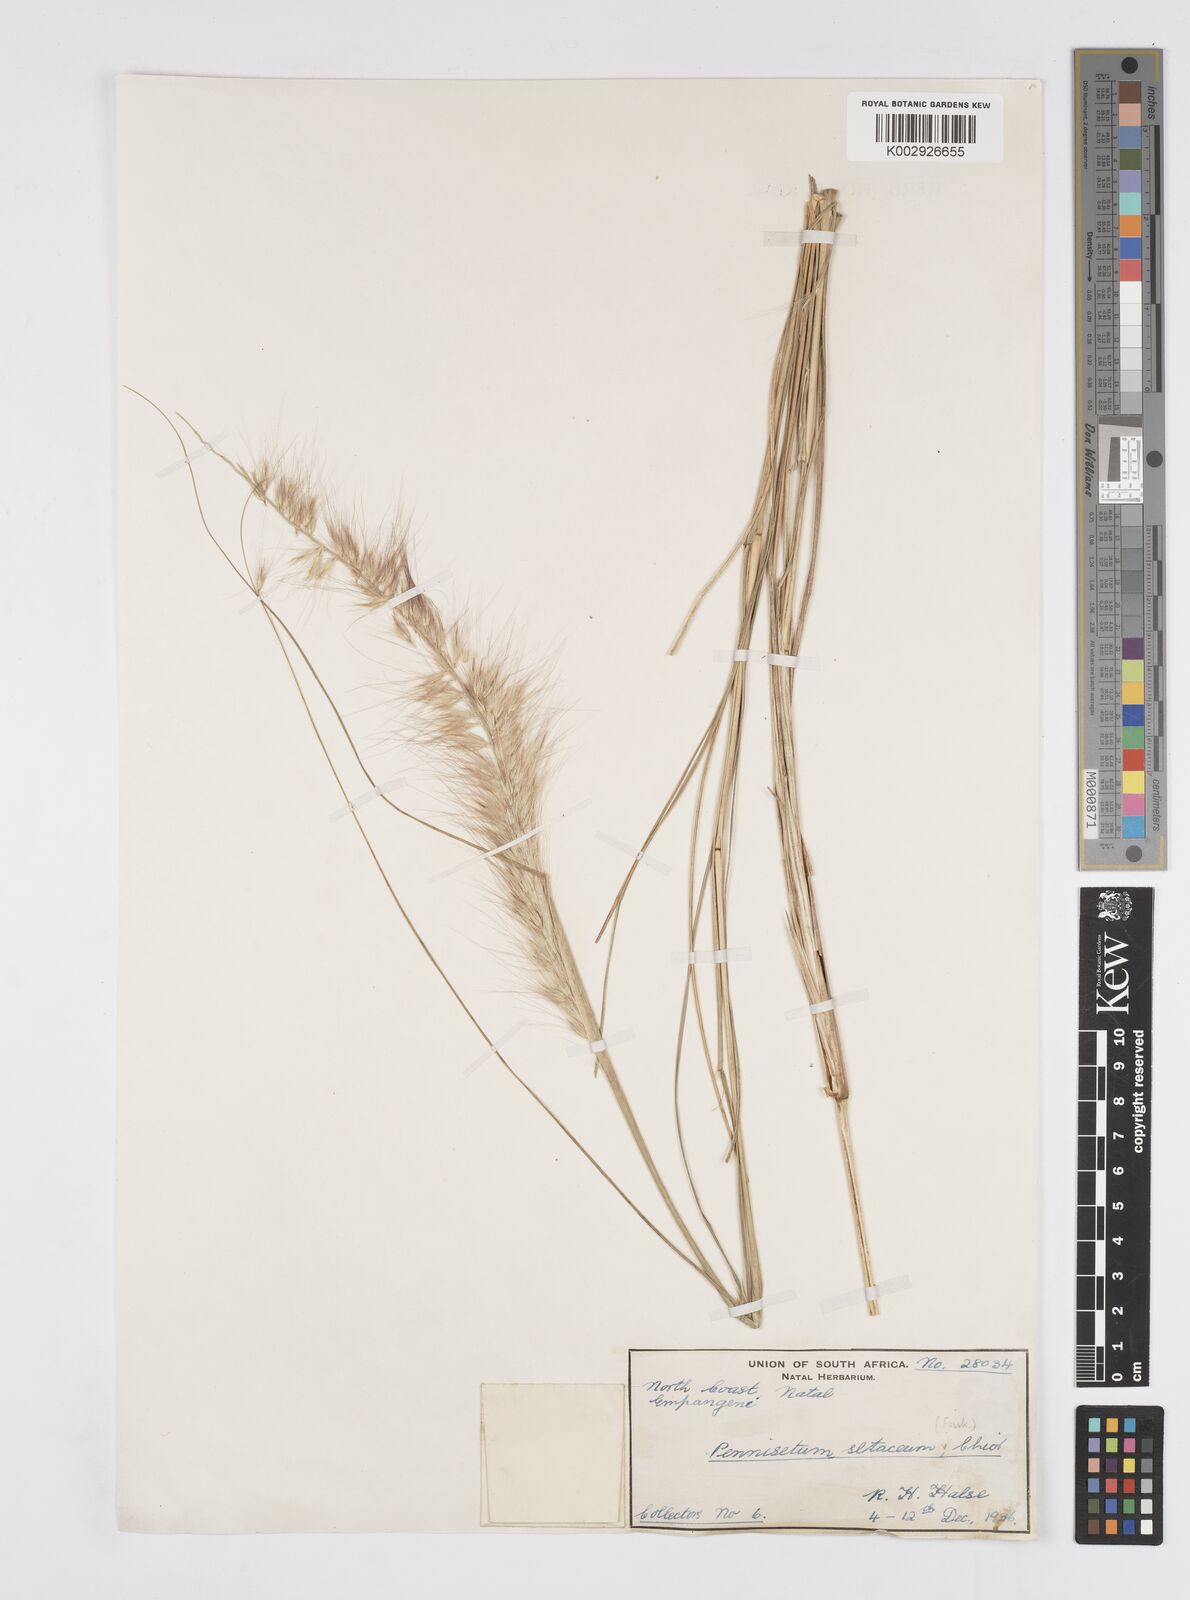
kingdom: Plantae
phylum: Tracheophyta
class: Liliopsida
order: Poales
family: Poaceae
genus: Cenchrus
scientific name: Cenchrus setaceus
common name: Crimson fountaingrass
